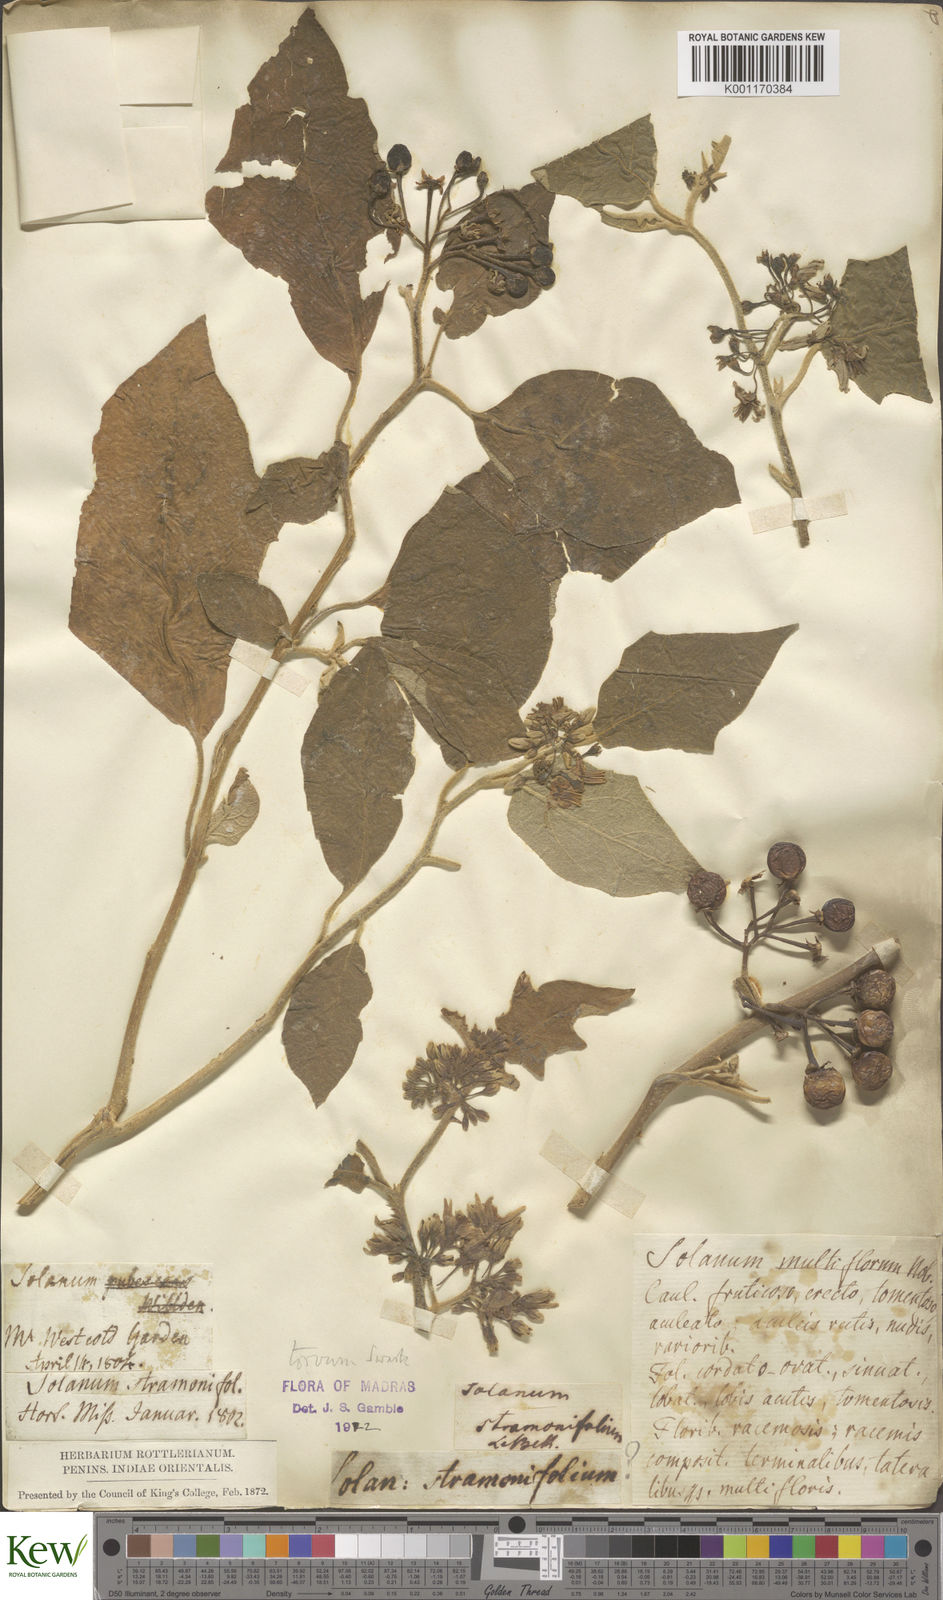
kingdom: Plantae
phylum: Tracheophyta
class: Magnoliopsida
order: Solanales
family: Solanaceae
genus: Solanum
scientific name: Solanum torvum
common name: Turkey berry
